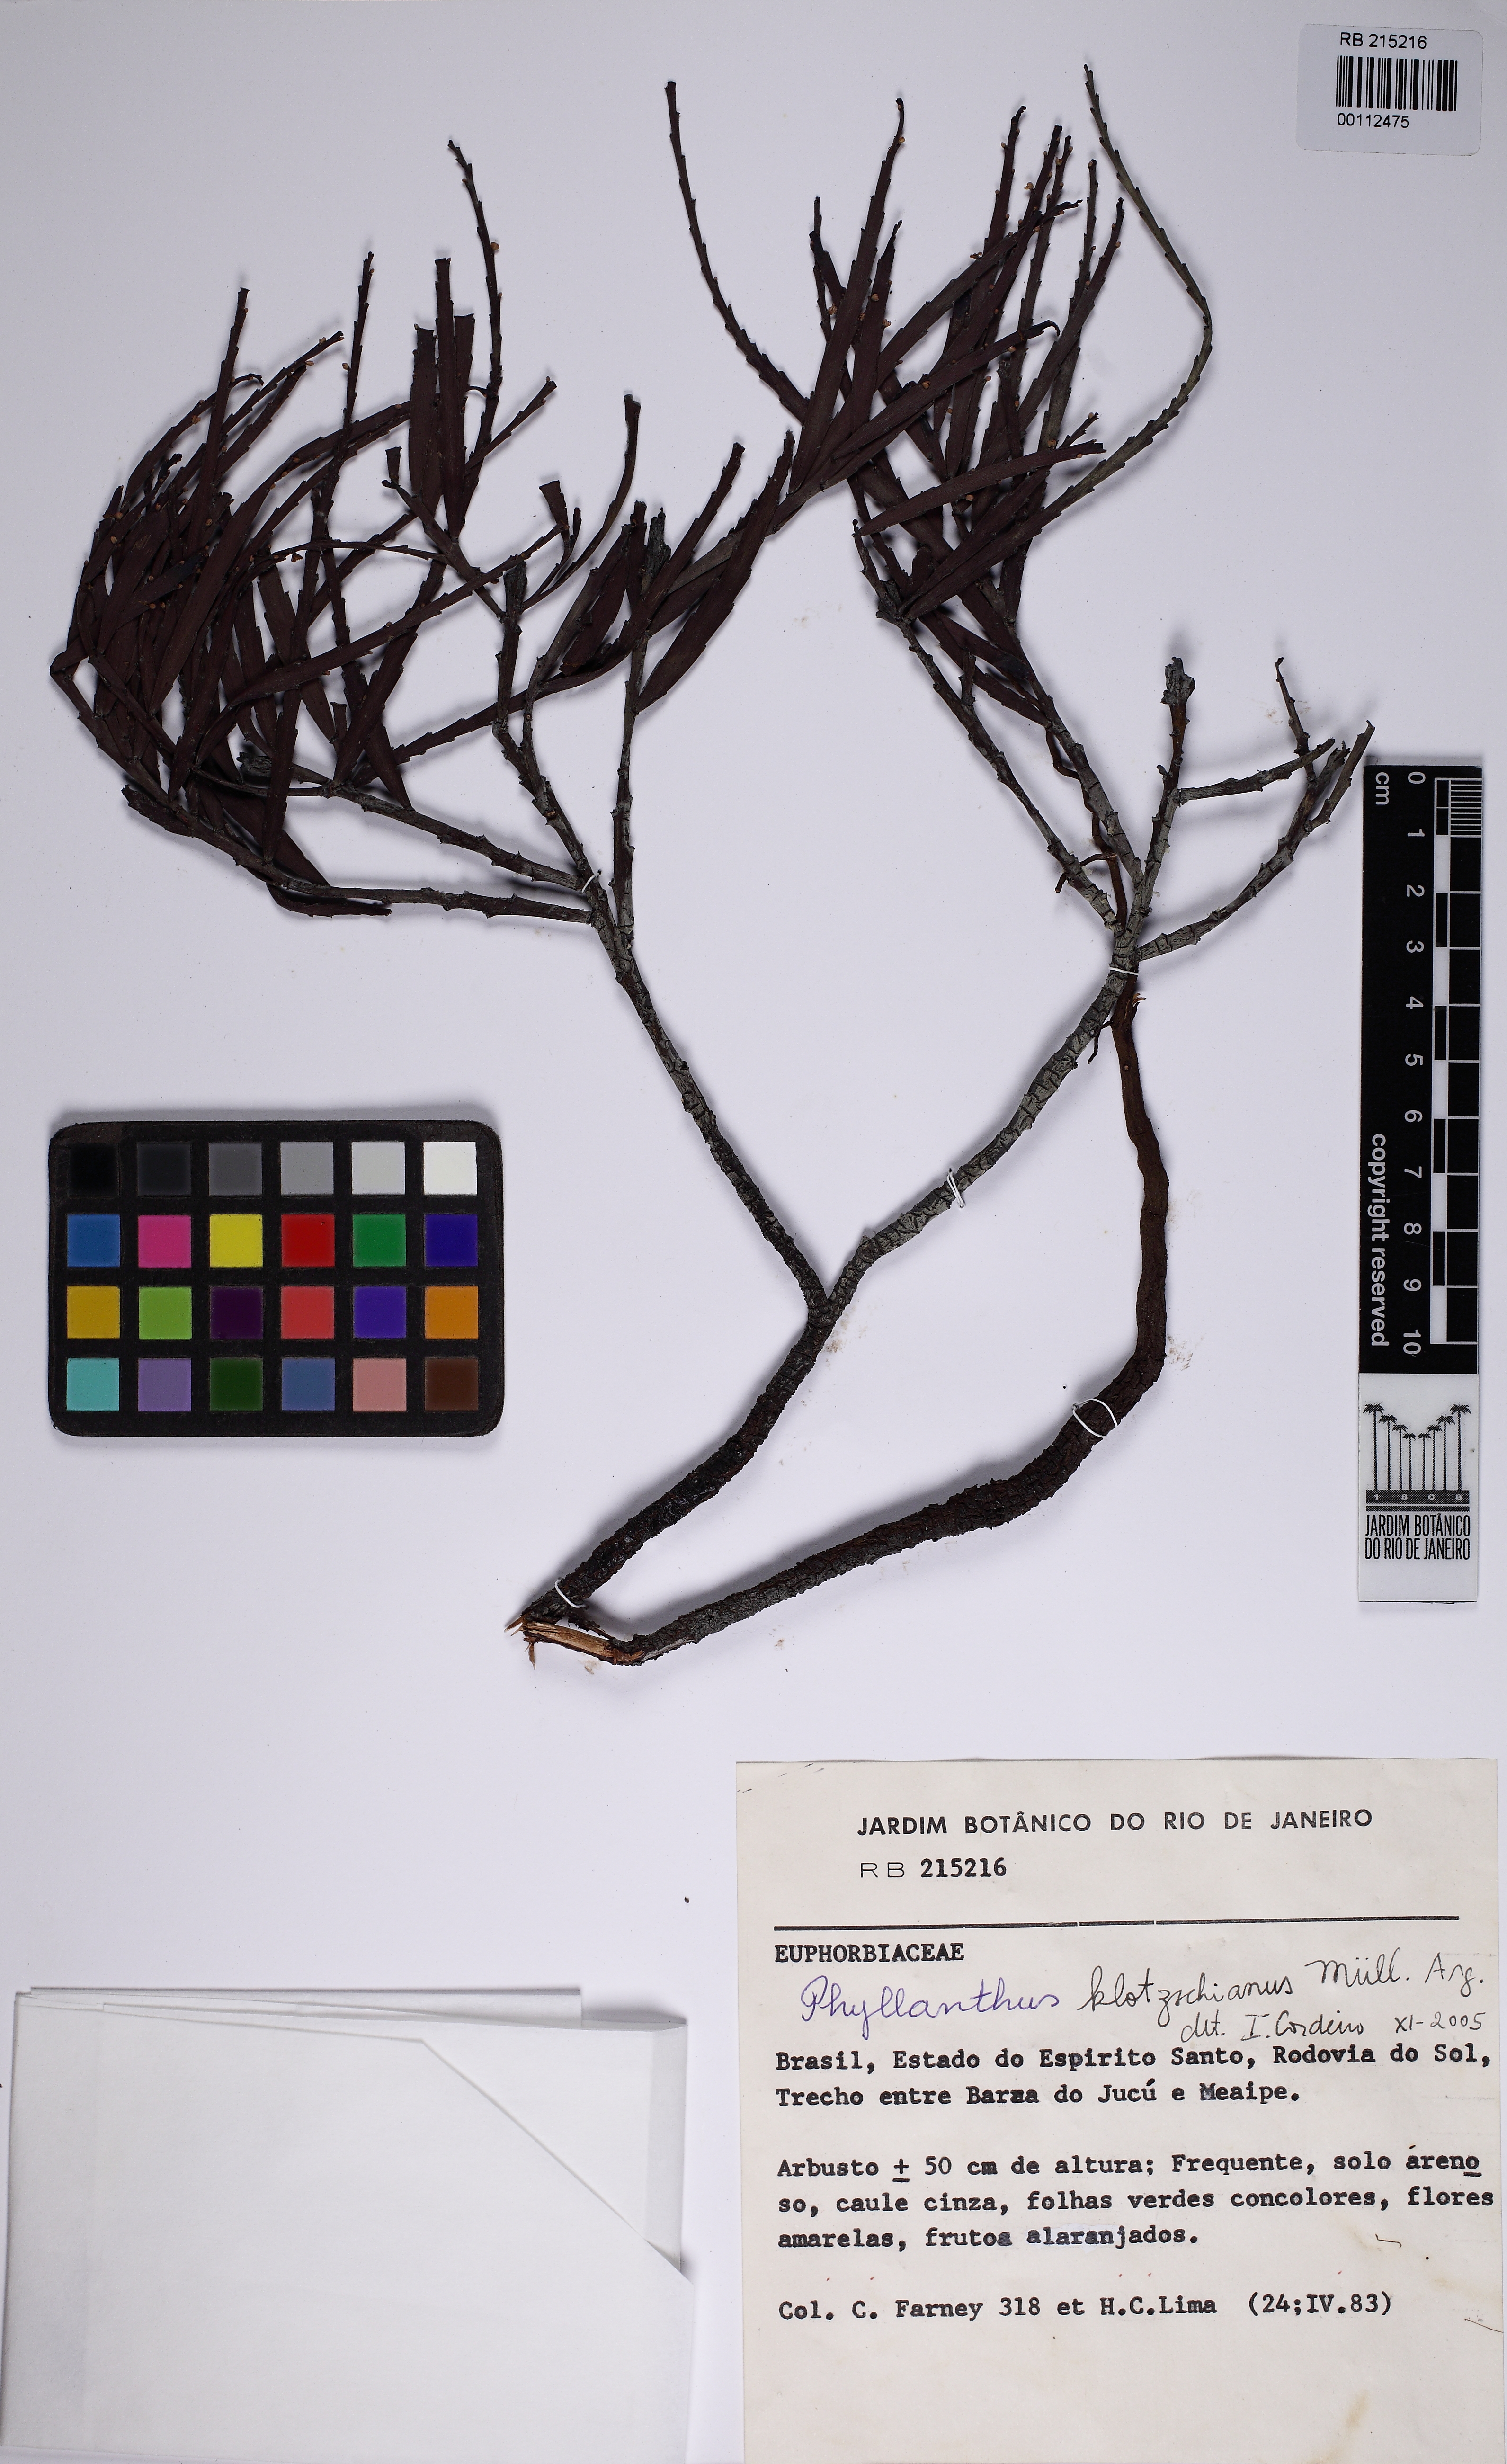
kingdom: Plantae
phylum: Tracheophyta
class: Magnoliopsida
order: Malpighiales
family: Phyllanthaceae
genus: Phyllanthus
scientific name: Phyllanthus robustus
